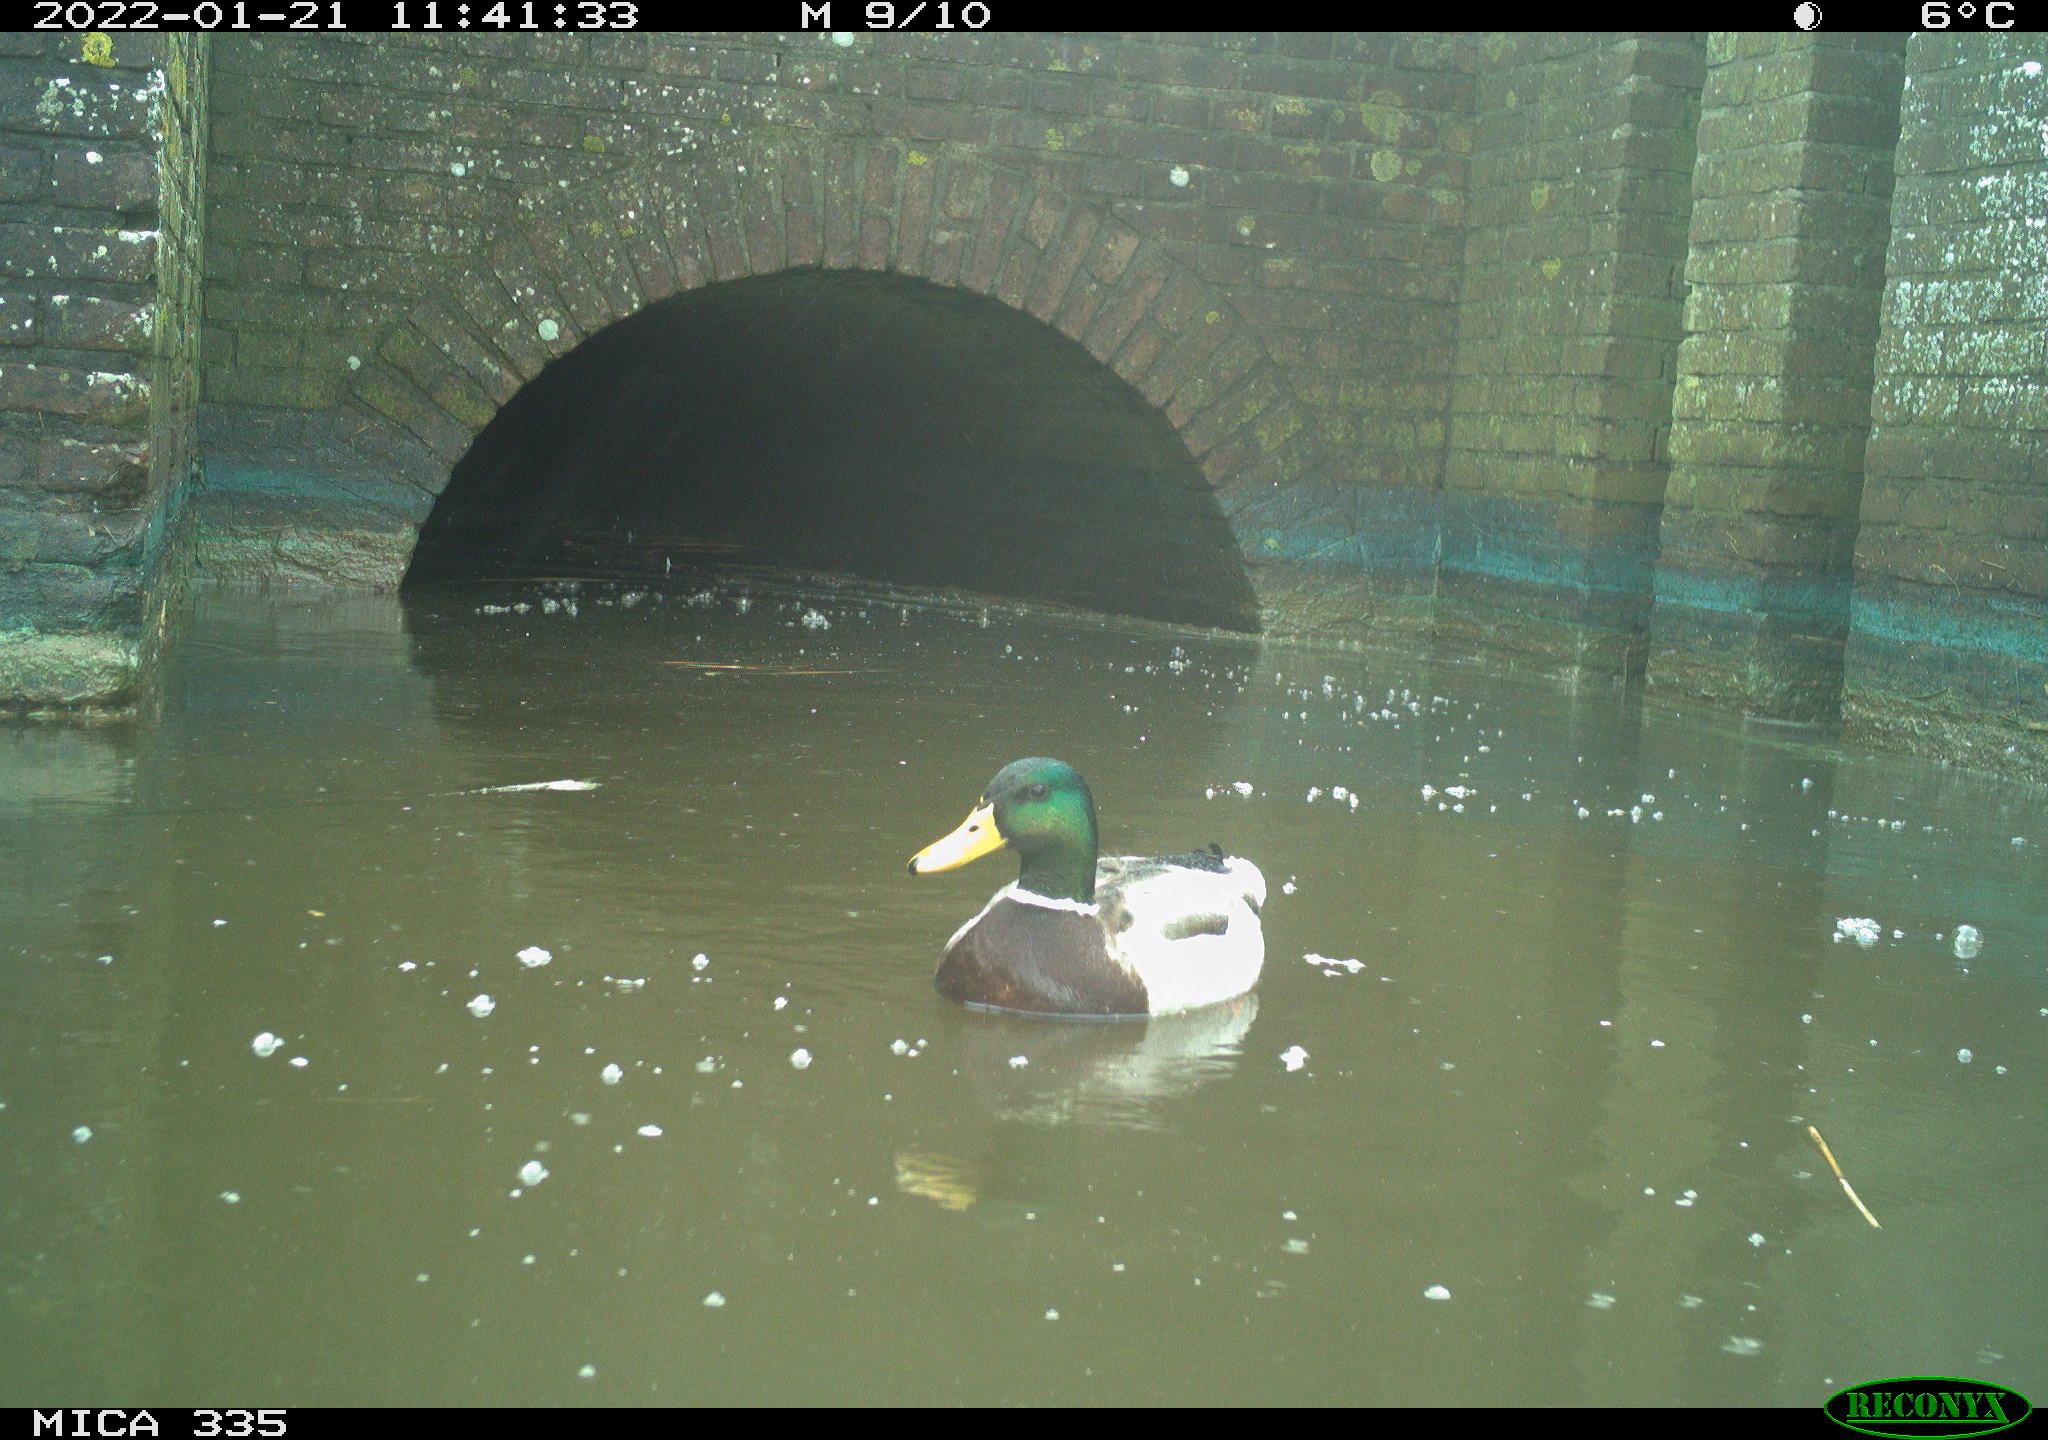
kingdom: Animalia
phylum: Chordata
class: Aves
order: Anseriformes
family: Anatidae
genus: Anas
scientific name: Anas platyrhynchos
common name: Mallard
